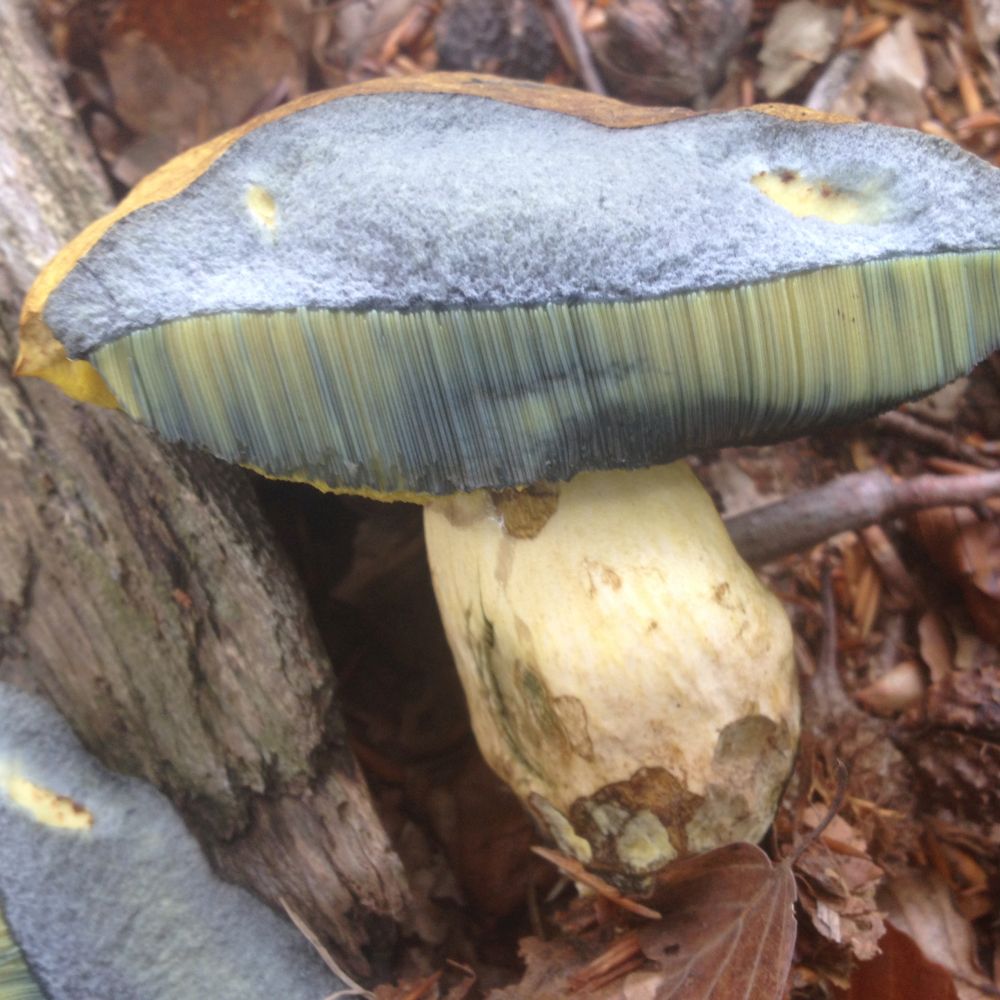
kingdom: Fungi
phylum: Basidiomycota
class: Agaricomycetes
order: Boletales
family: Boletaceae
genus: Neoboletus
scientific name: Neoboletus praestigiator
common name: gul indigorørhat
